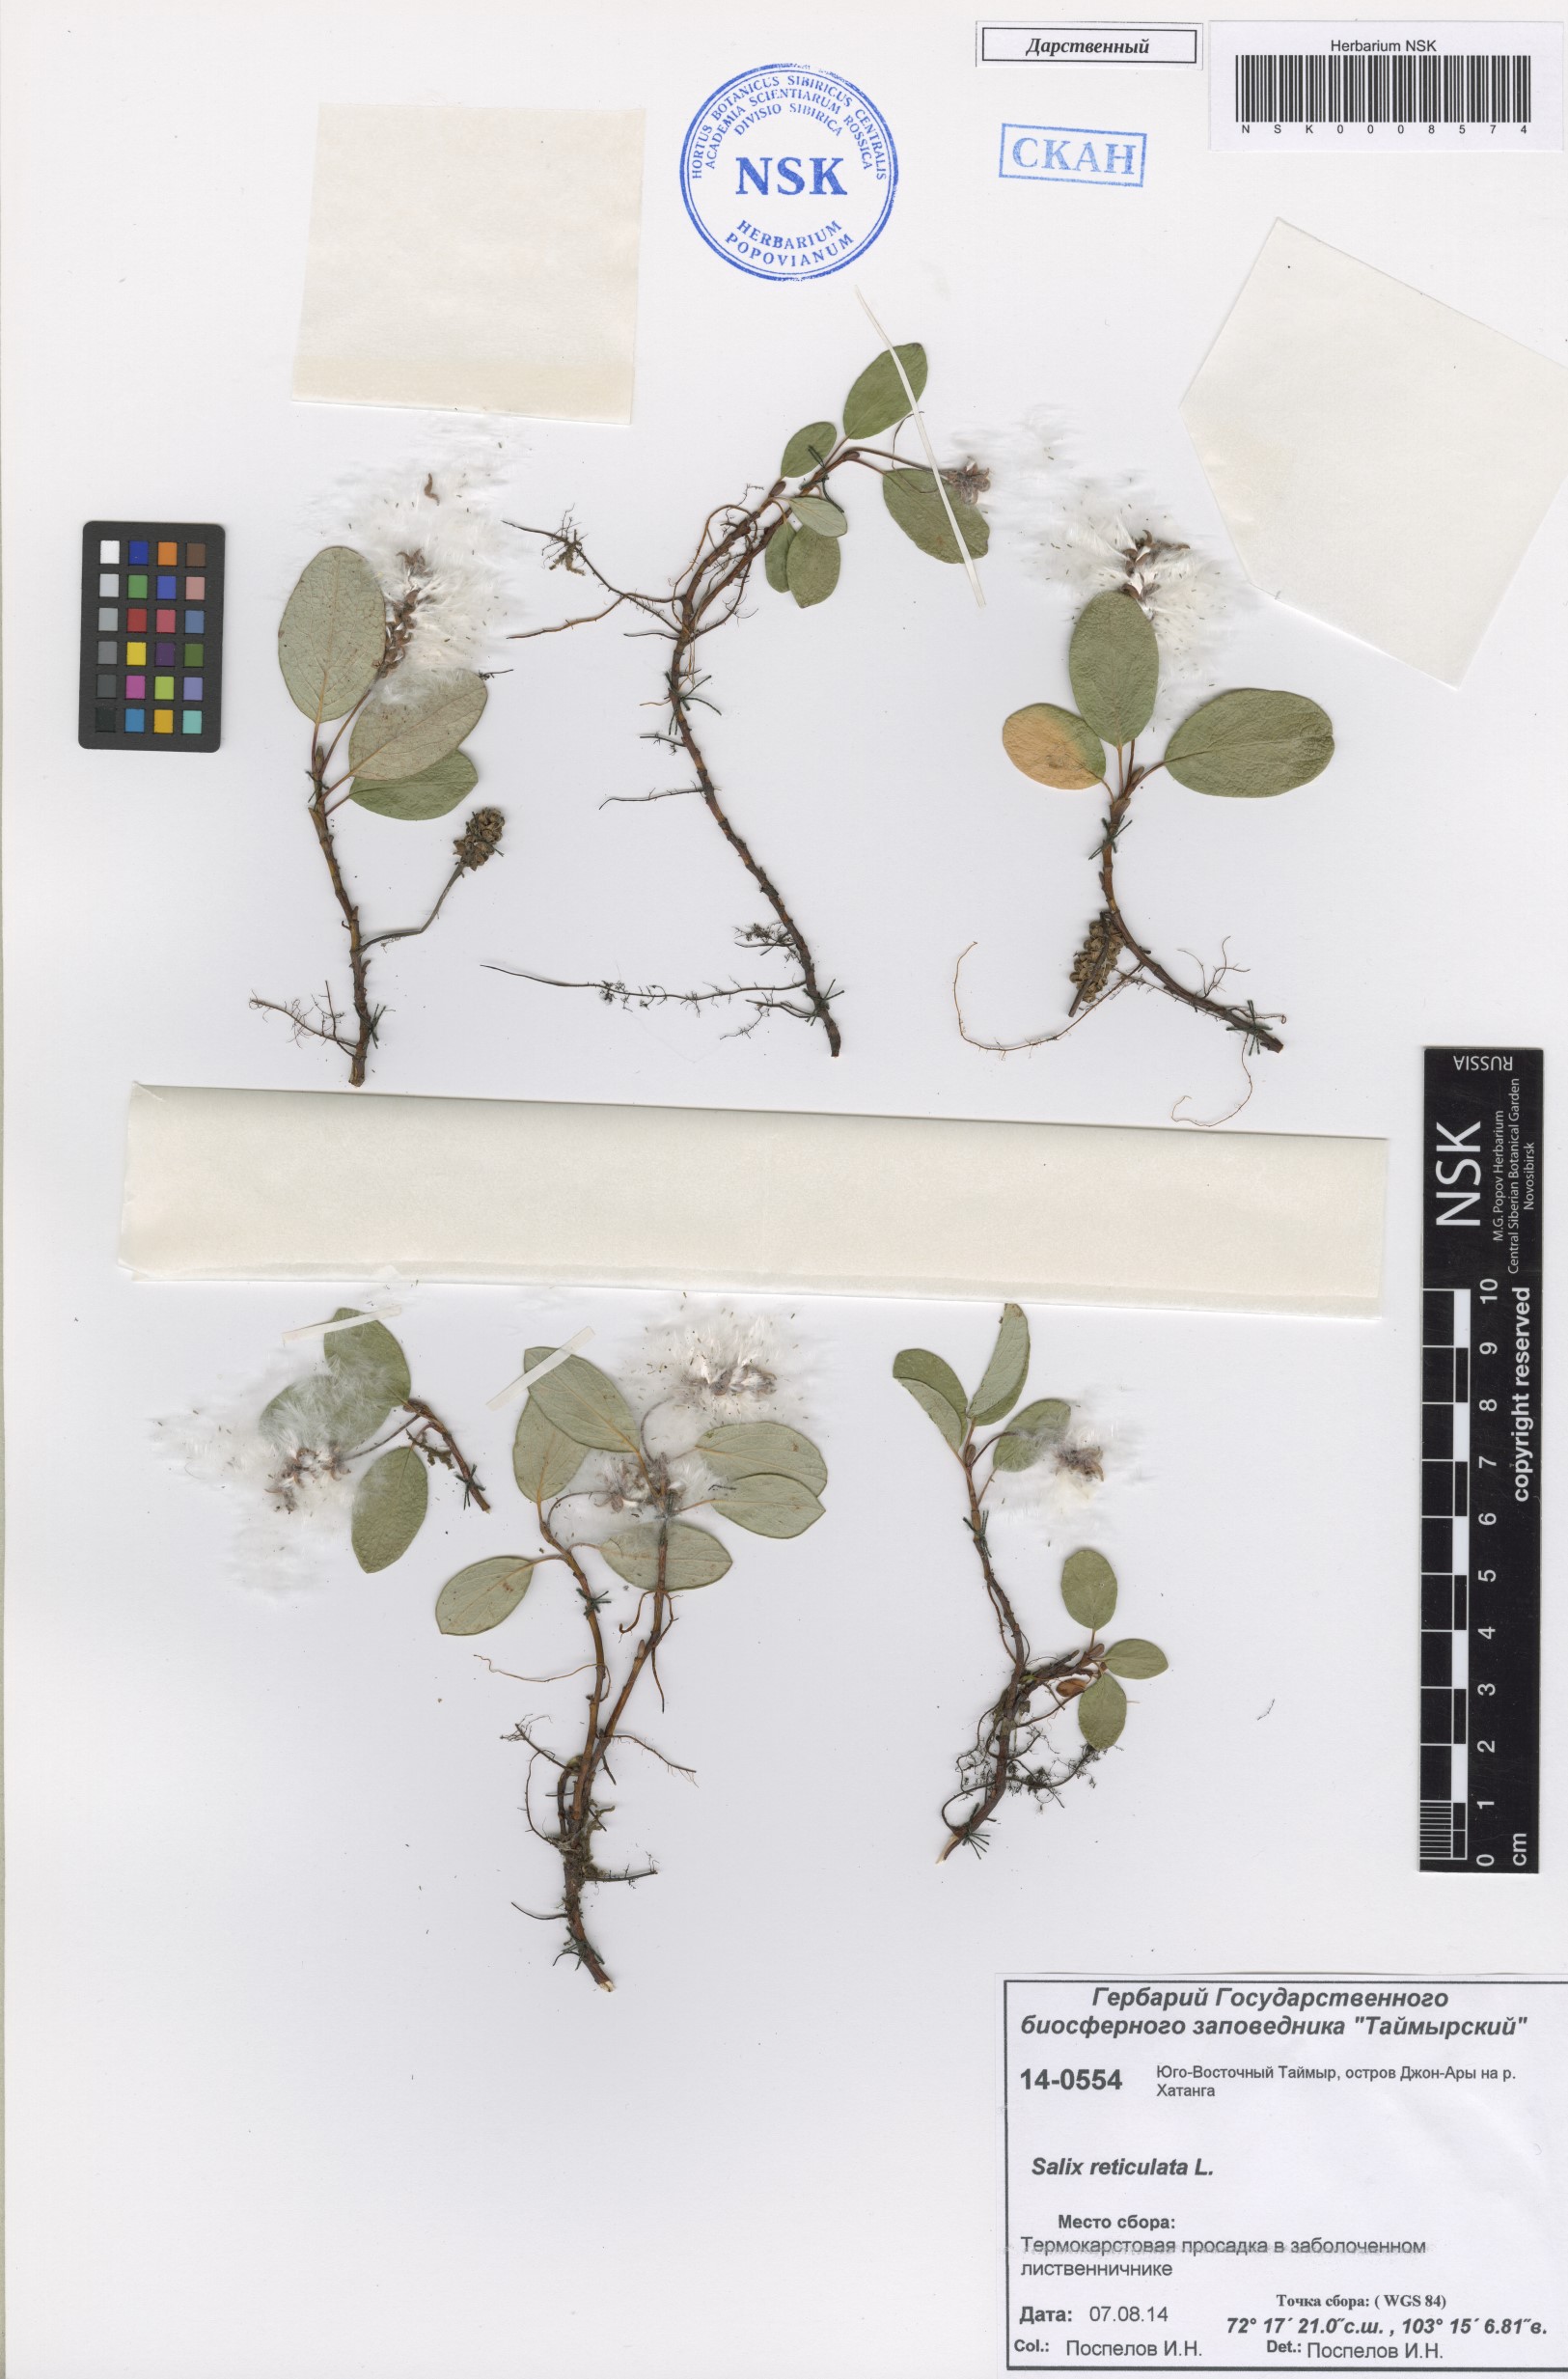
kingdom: Plantae
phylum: Tracheophyta
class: Magnoliopsida
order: Malpighiales
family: Salicaceae
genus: Salix
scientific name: Salix reticulata
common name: Net-leaved willow
